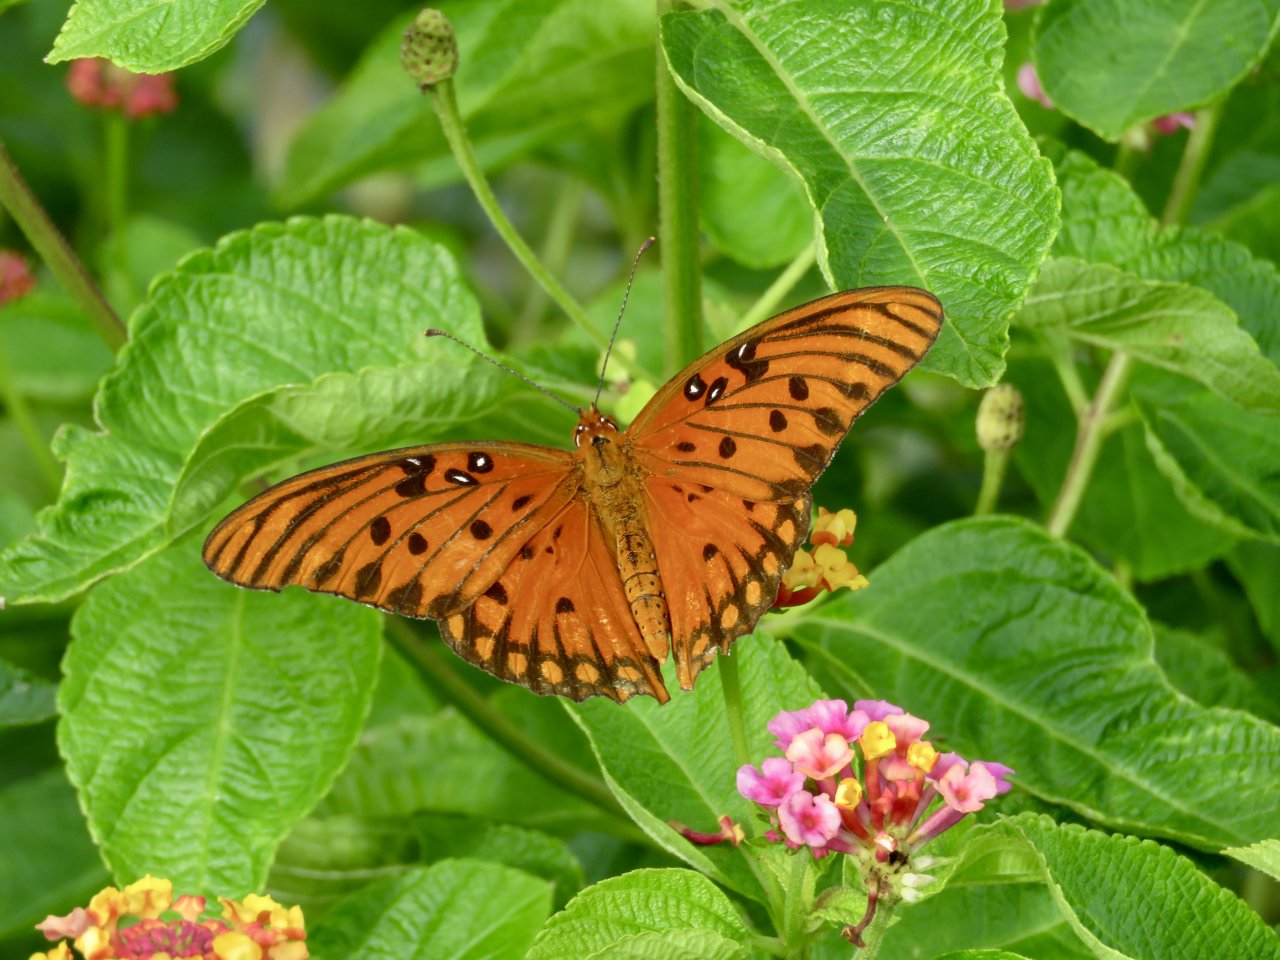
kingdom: Animalia
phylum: Arthropoda
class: Insecta
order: Lepidoptera
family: Nymphalidae
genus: Dione
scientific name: Dione vanillae
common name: Gulf Fritillary
